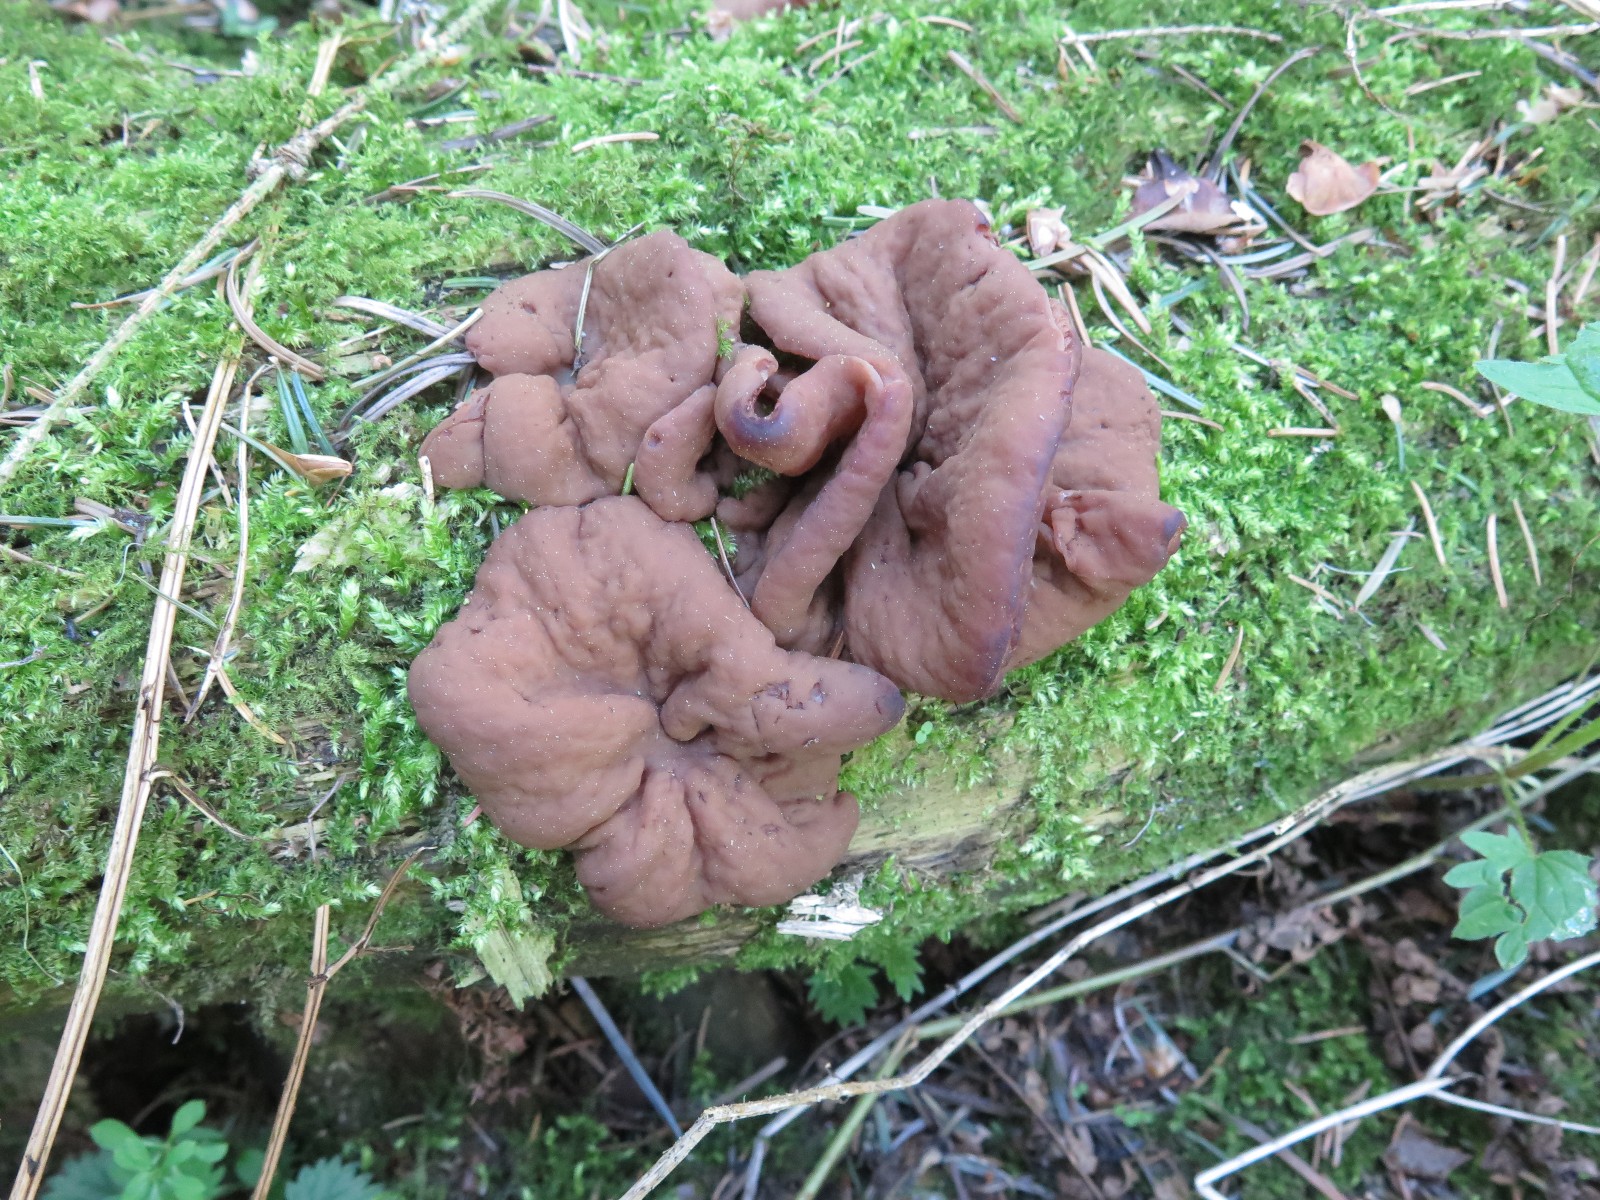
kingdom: Fungi
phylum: Ascomycota
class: Pezizomycetes
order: Pezizales
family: Discinaceae
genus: Discina
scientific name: Discina ancilis
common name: udbredt stenmorkel
